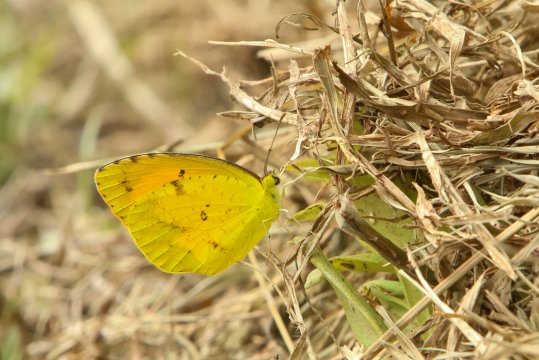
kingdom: Animalia
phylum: Arthropoda
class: Insecta
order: Lepidoptera
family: Pieridae
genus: Abaeis
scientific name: Abaeis nicippe
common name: Sleepy Orange
